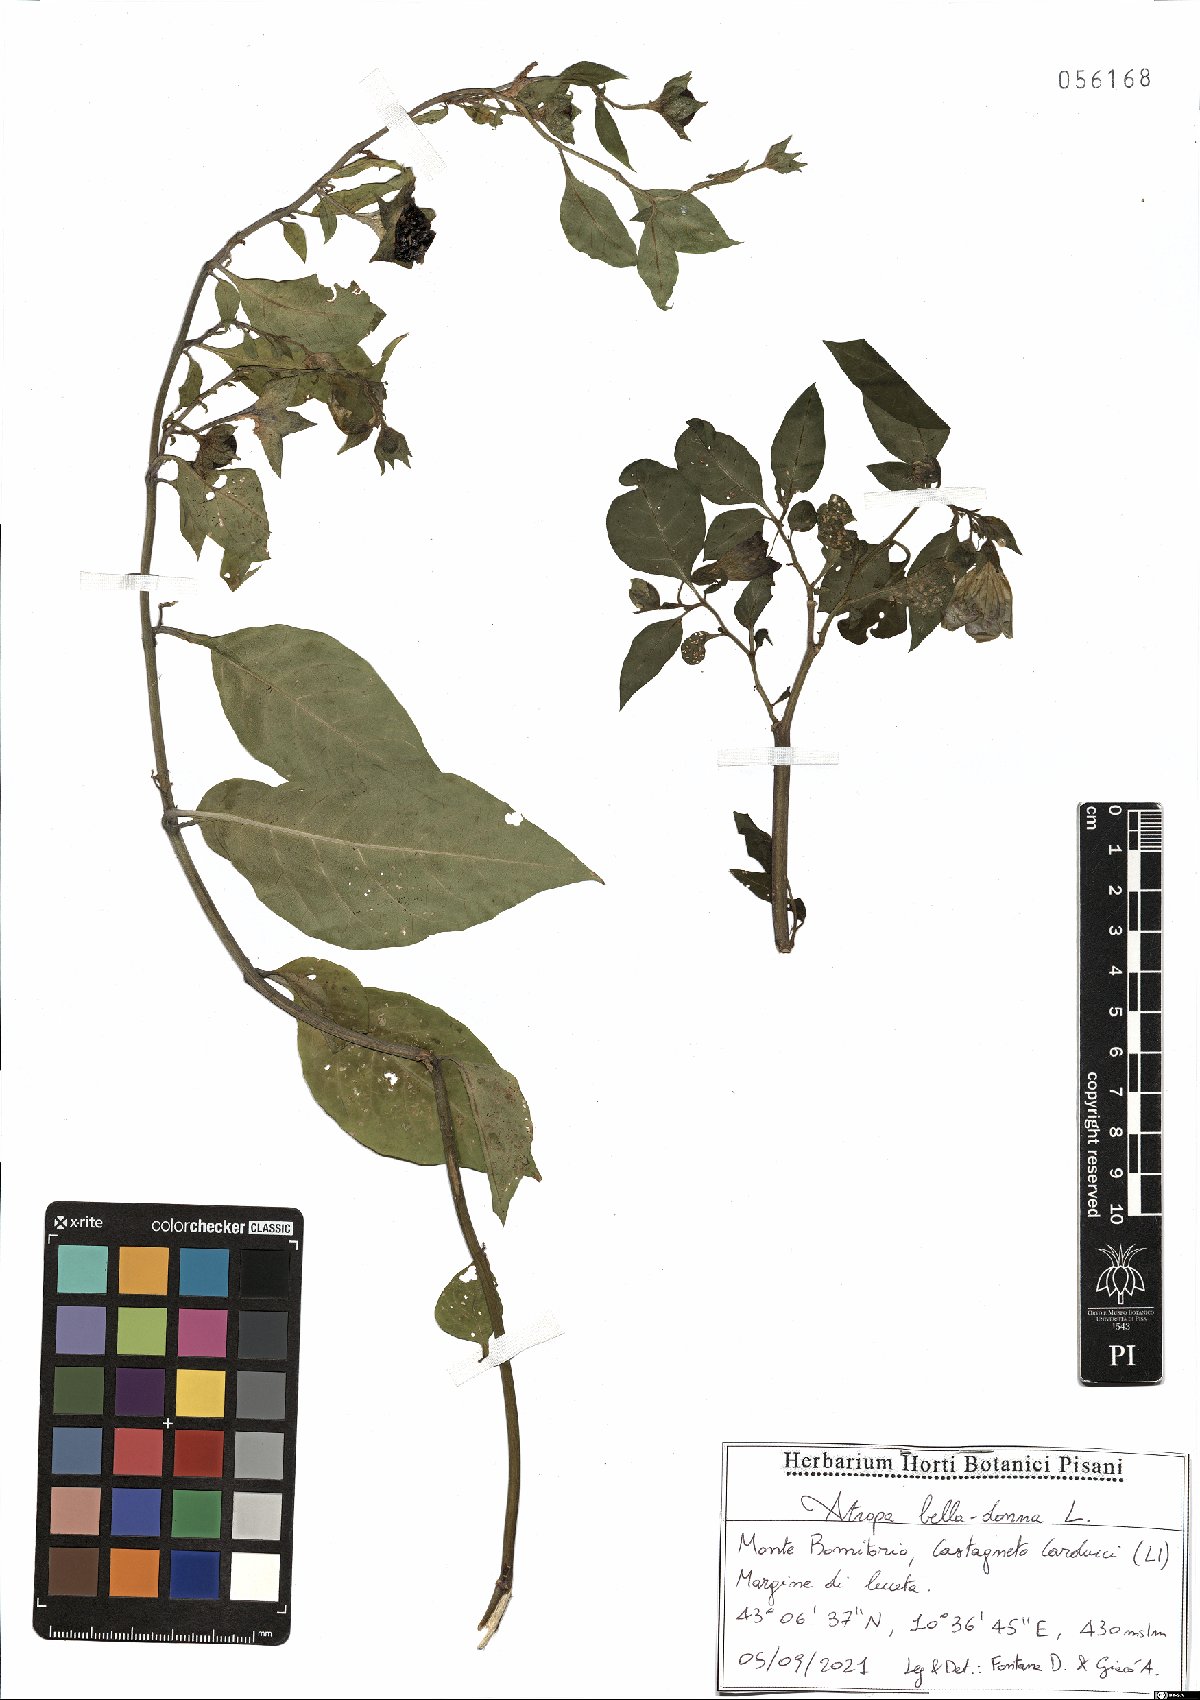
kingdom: Plantae
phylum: Tracheophyta
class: Magnoliopsida
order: Solanales
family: Solanaceae
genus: Atropa
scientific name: Atropa belladonna
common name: Deadly nightshade
